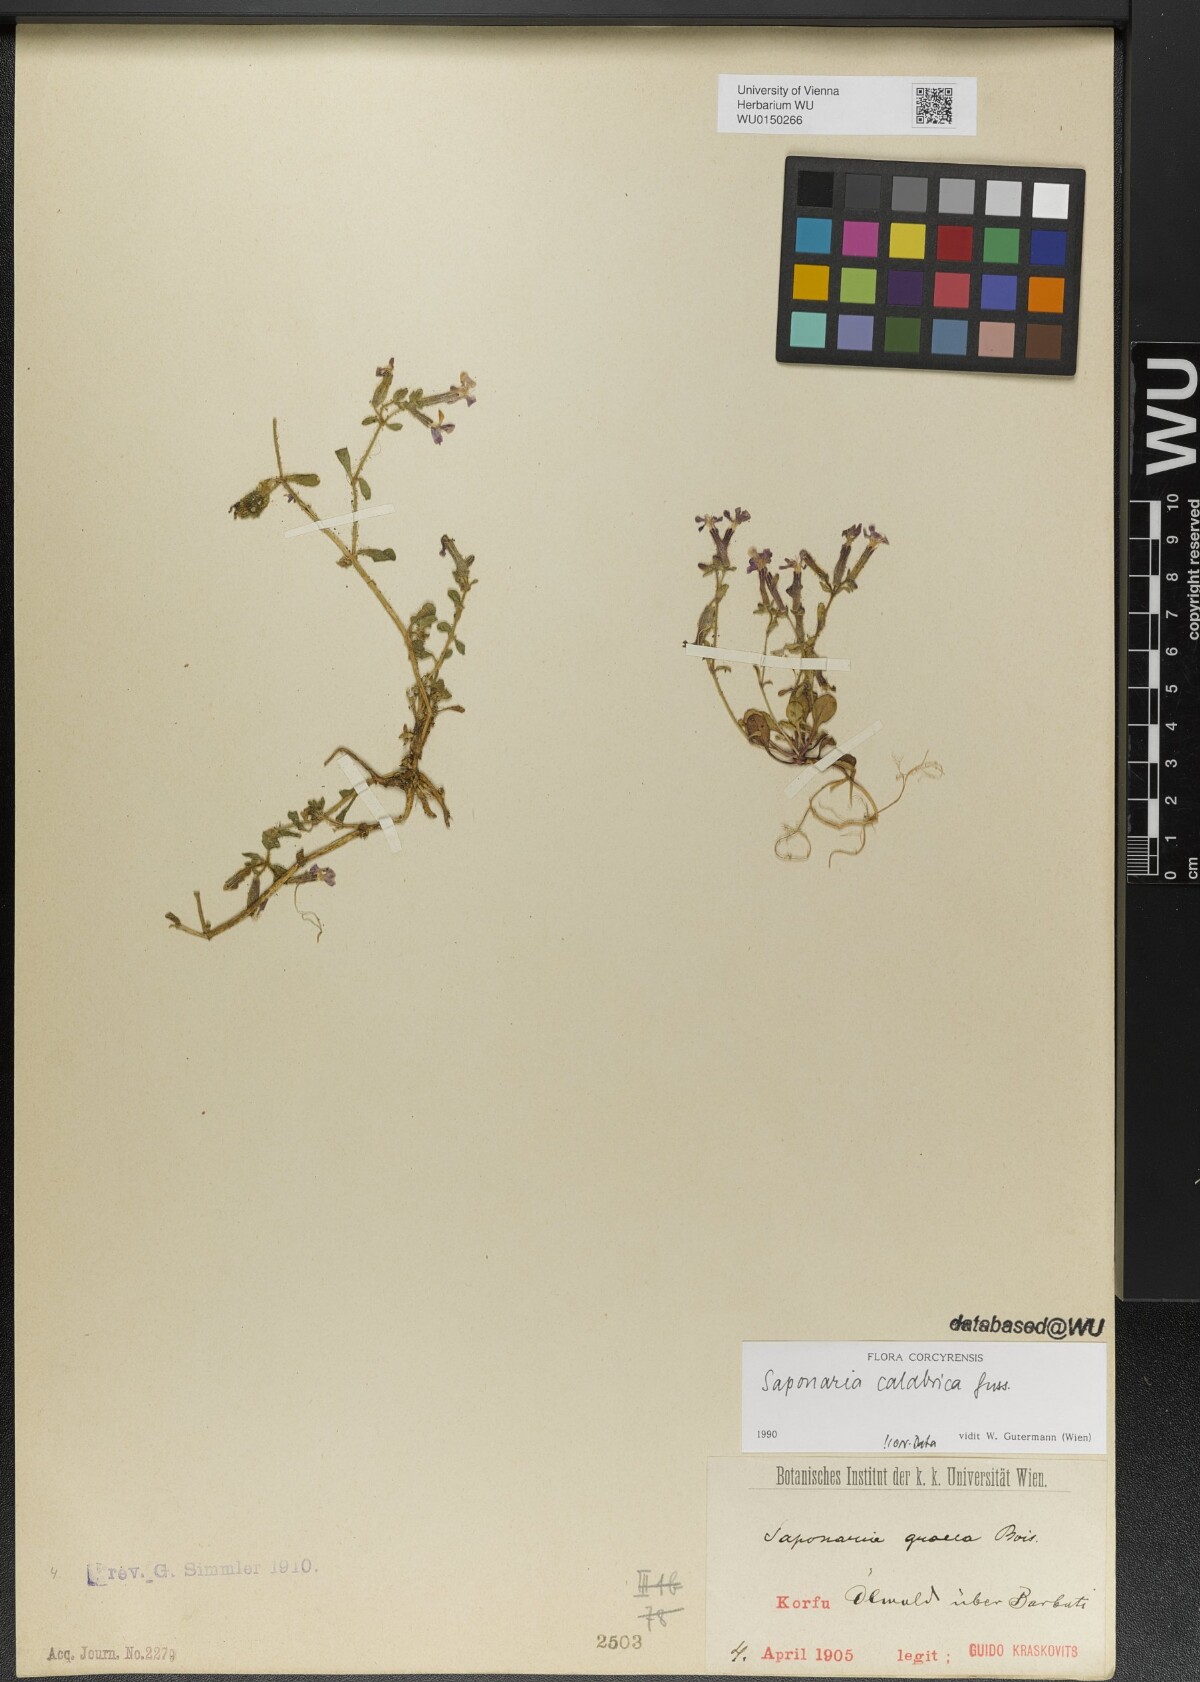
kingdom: Plantae
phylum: Tracheophyta
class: Magnoliopsida
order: Caryophyllales
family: Caryophyllaceae
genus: Saponaria
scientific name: Saponaria calabrica
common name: Adriatic soapwort
